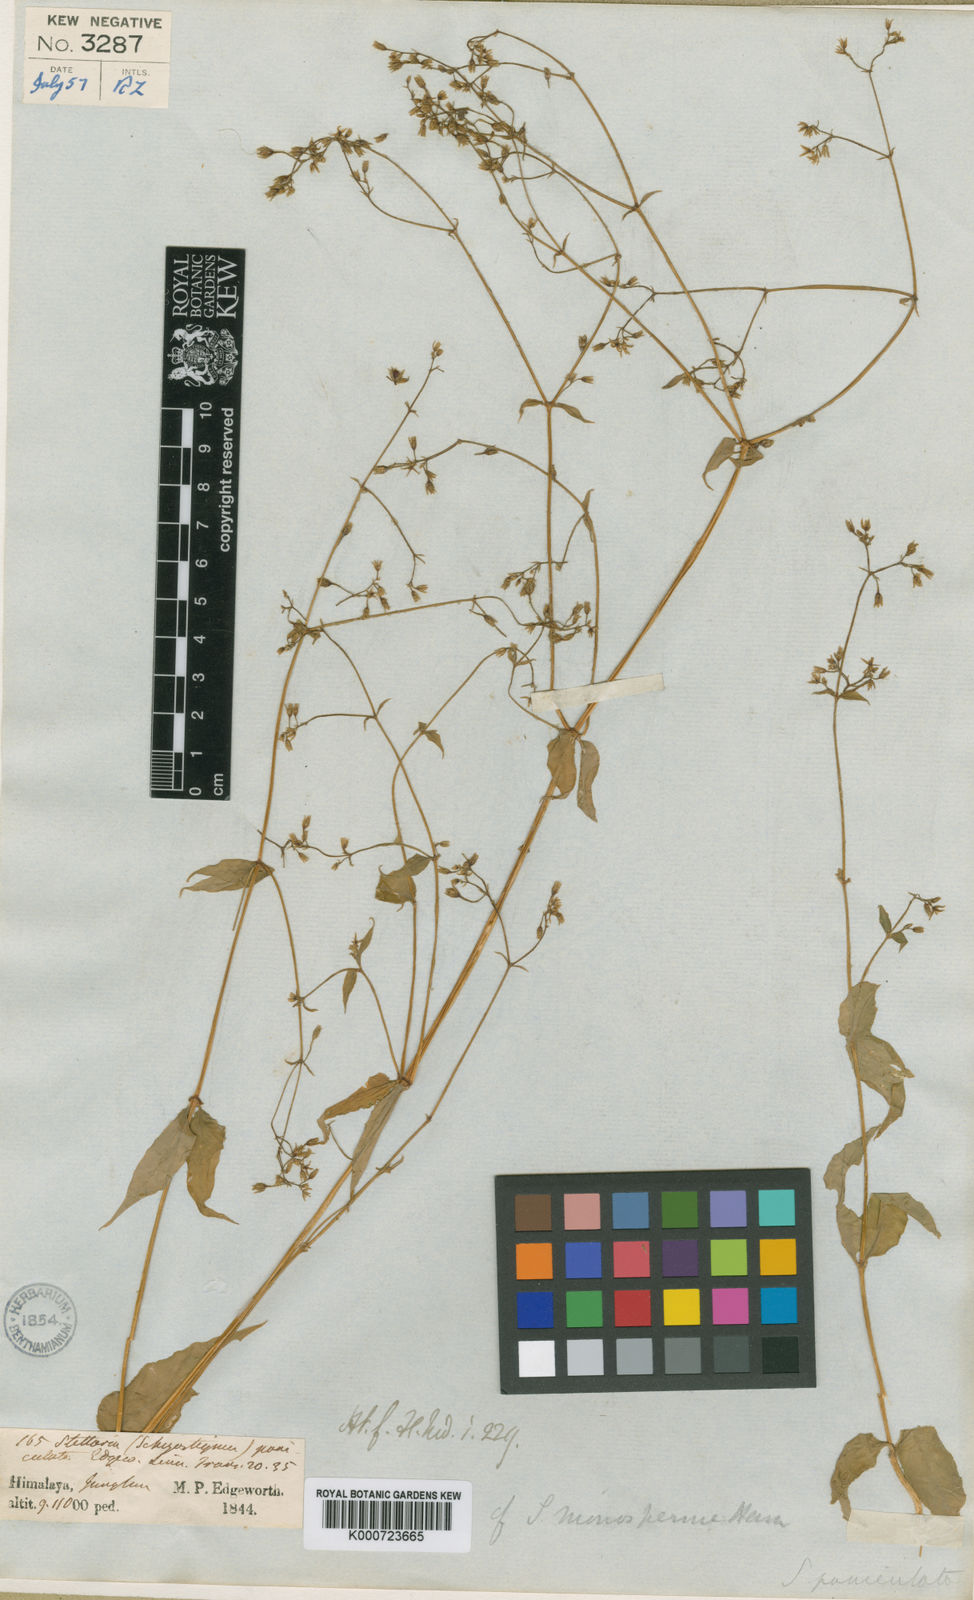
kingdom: Plantae
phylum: Tracheophyta
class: Magnoliopsida
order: Caryophyllales
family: Caryophyllaceae
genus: Schizotechium
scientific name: Schizotechium paniculatum
